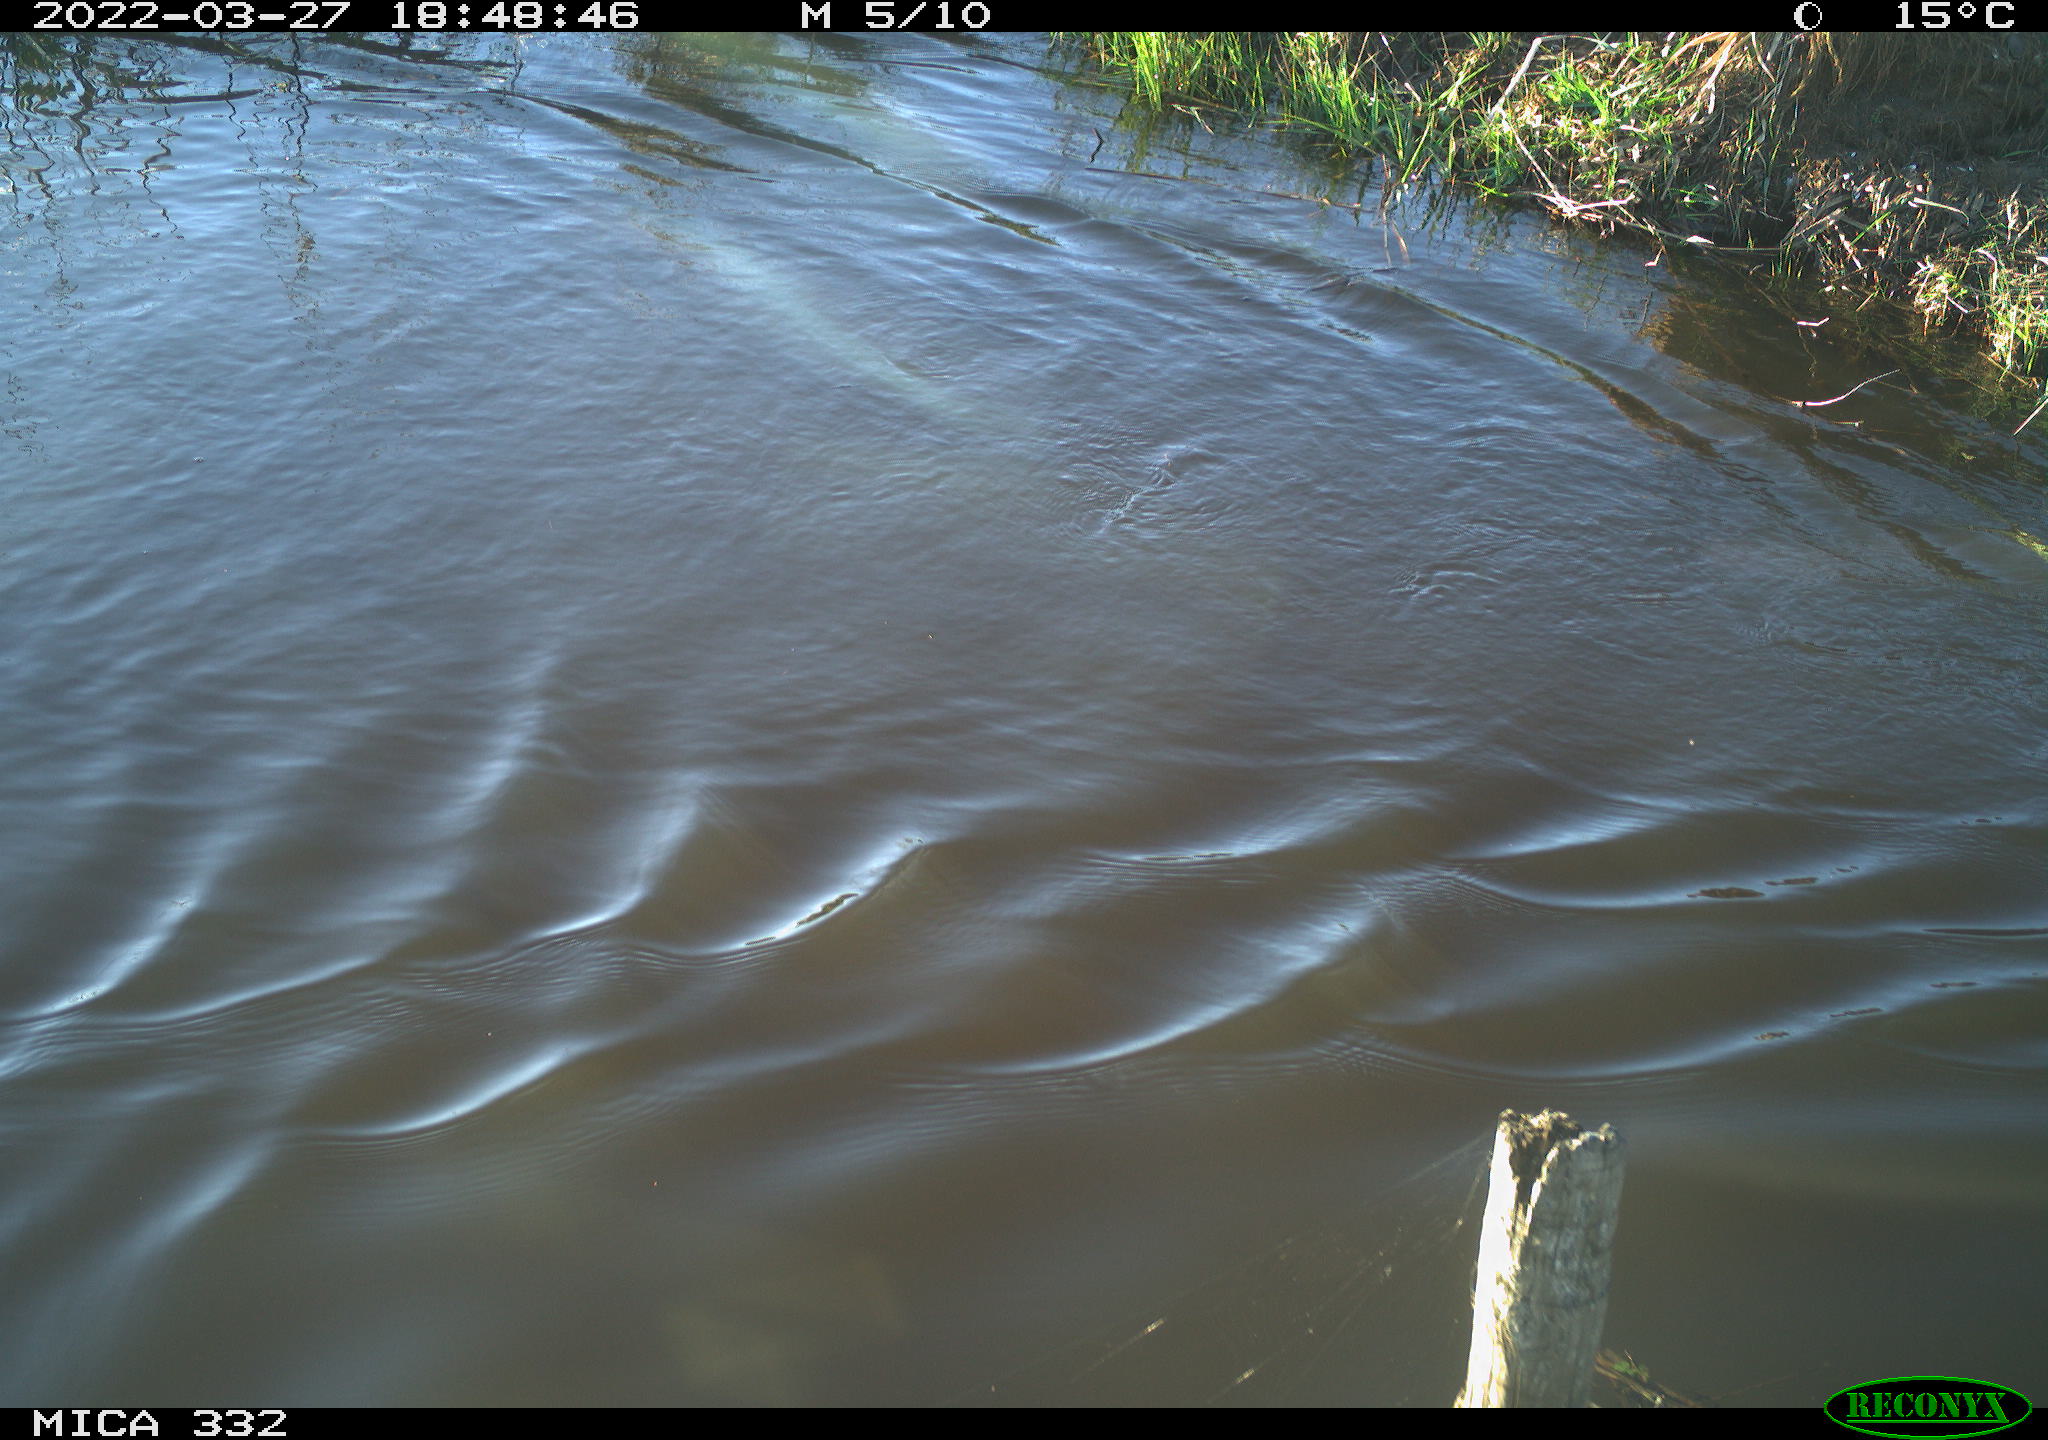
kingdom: Animalia
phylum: Chordata
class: Aves
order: Anseriformes
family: Anatidae
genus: Branta
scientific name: Branta canadensis
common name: Canada goose
